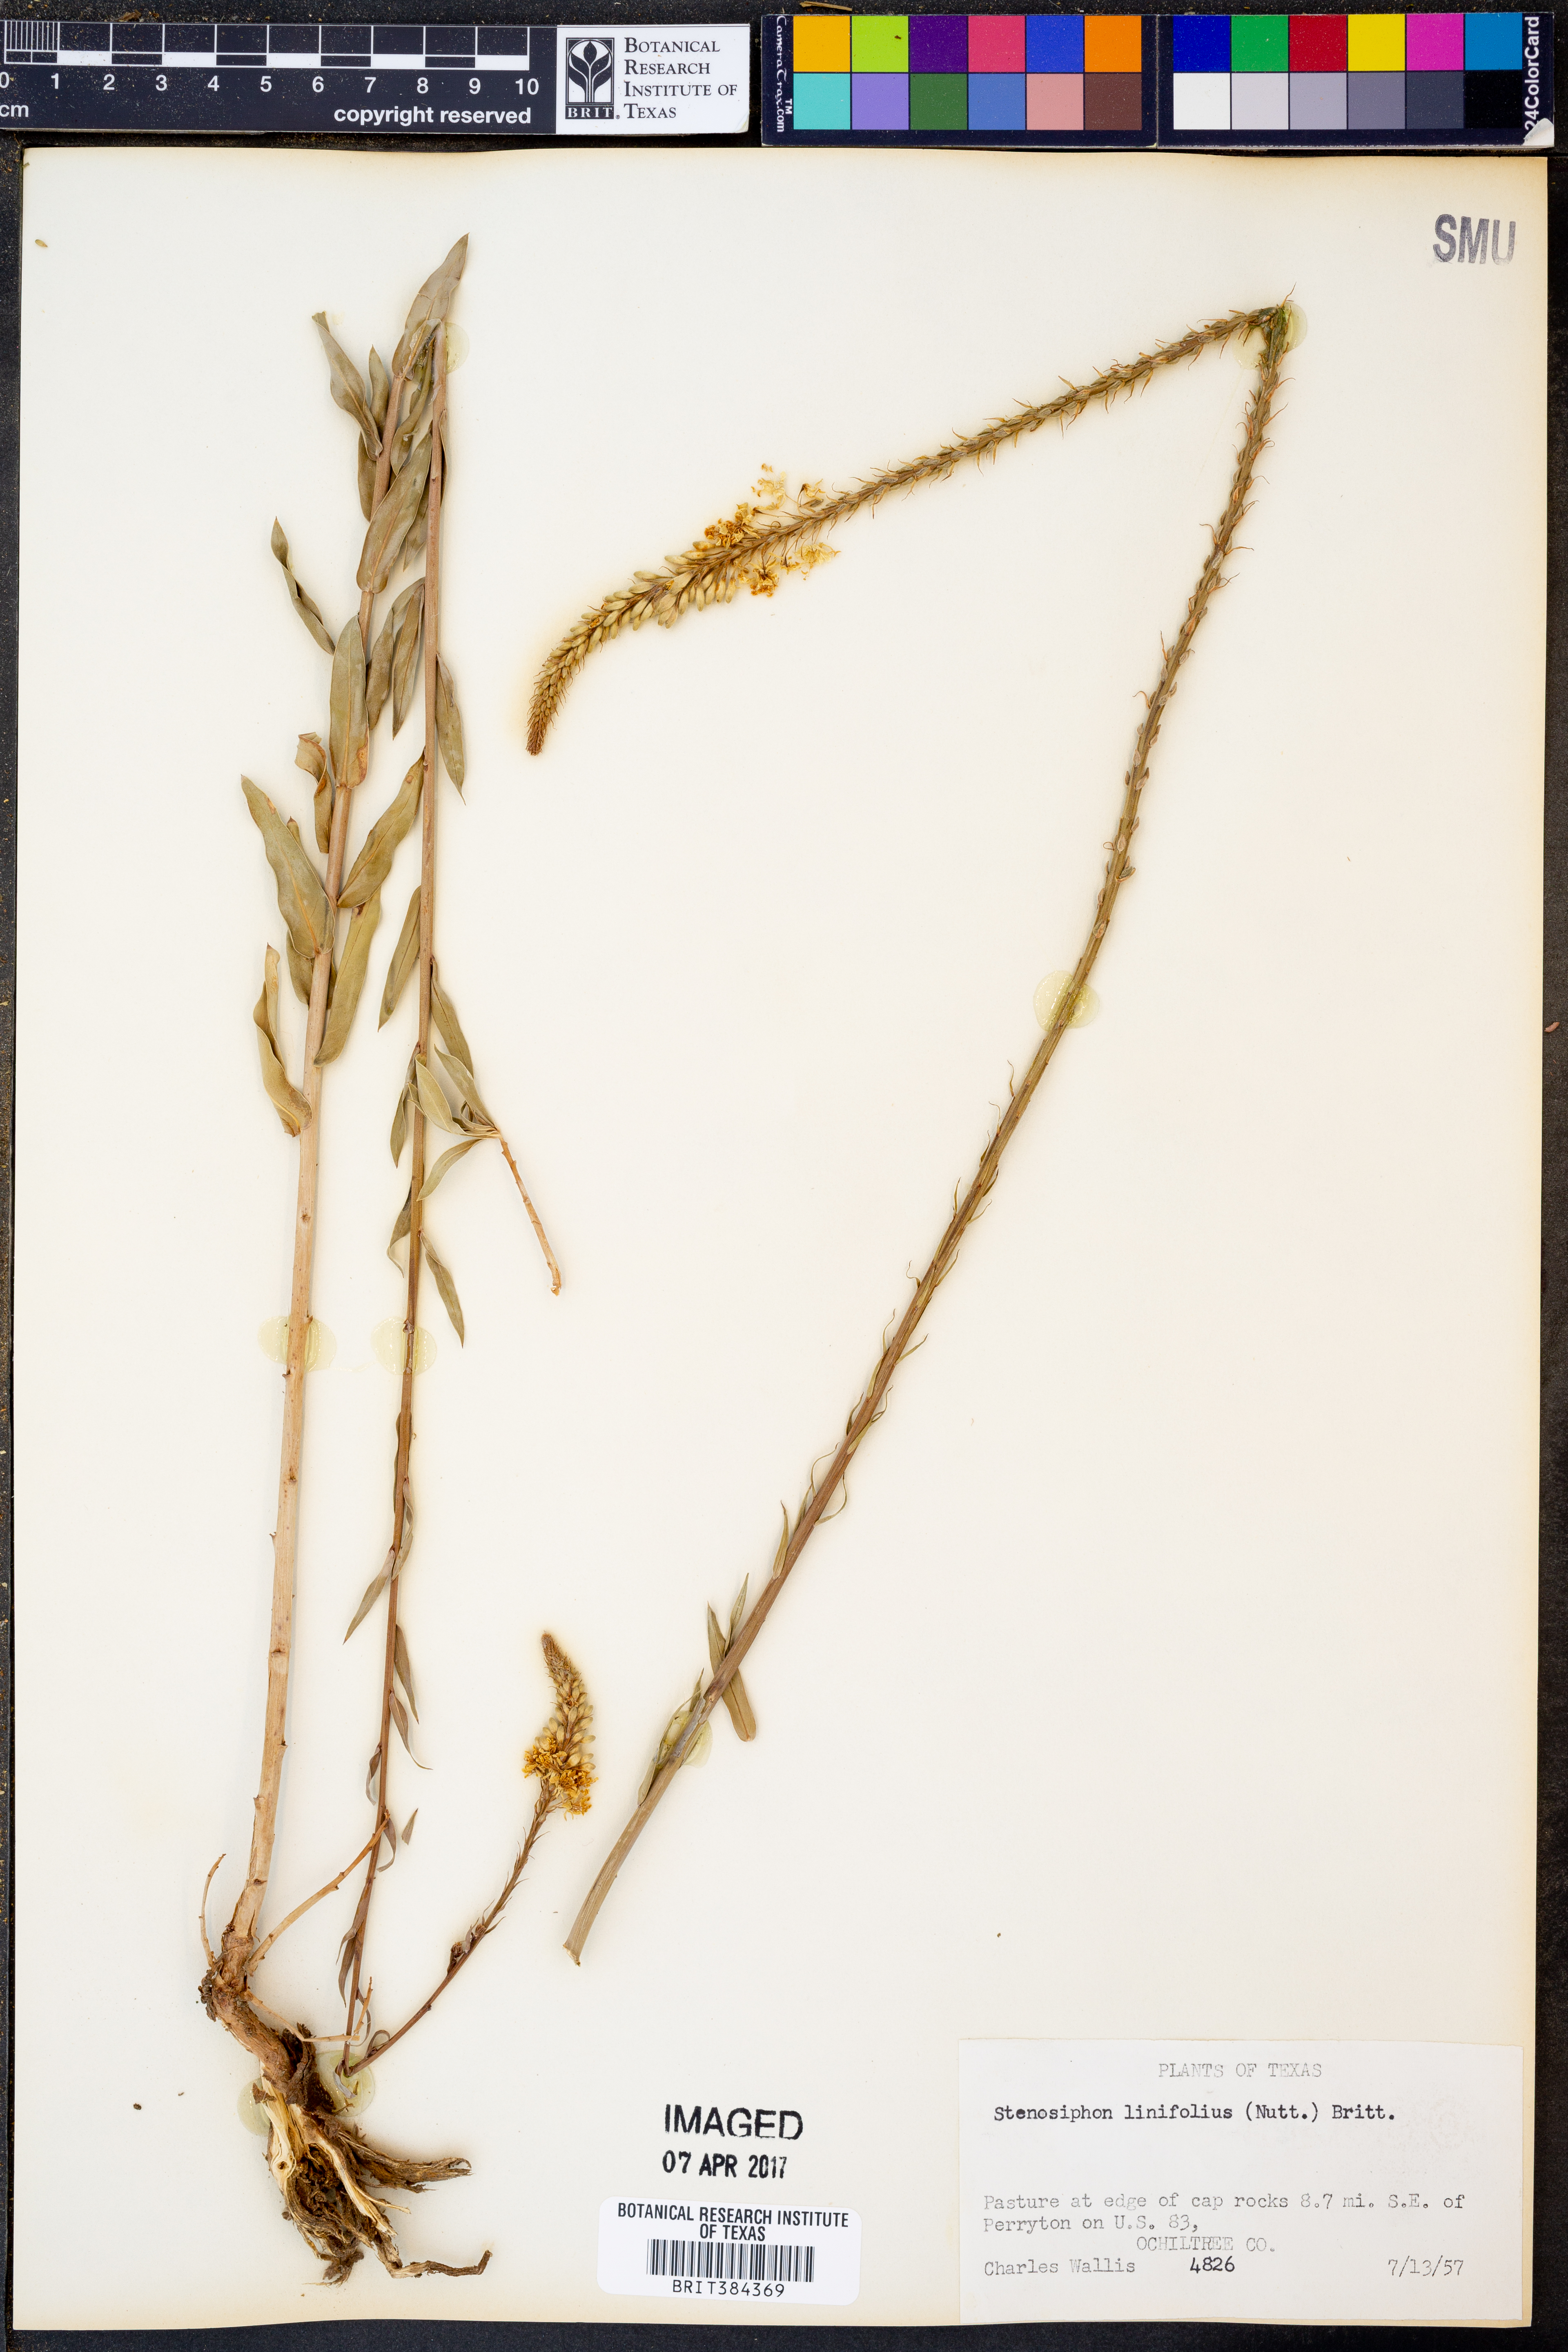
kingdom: Plantae
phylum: Tracheophyta
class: Magnoliopsida
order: Myrtales
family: Onagraceae
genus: Oenothera
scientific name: Oenothera glaucifolia
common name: False gaura
